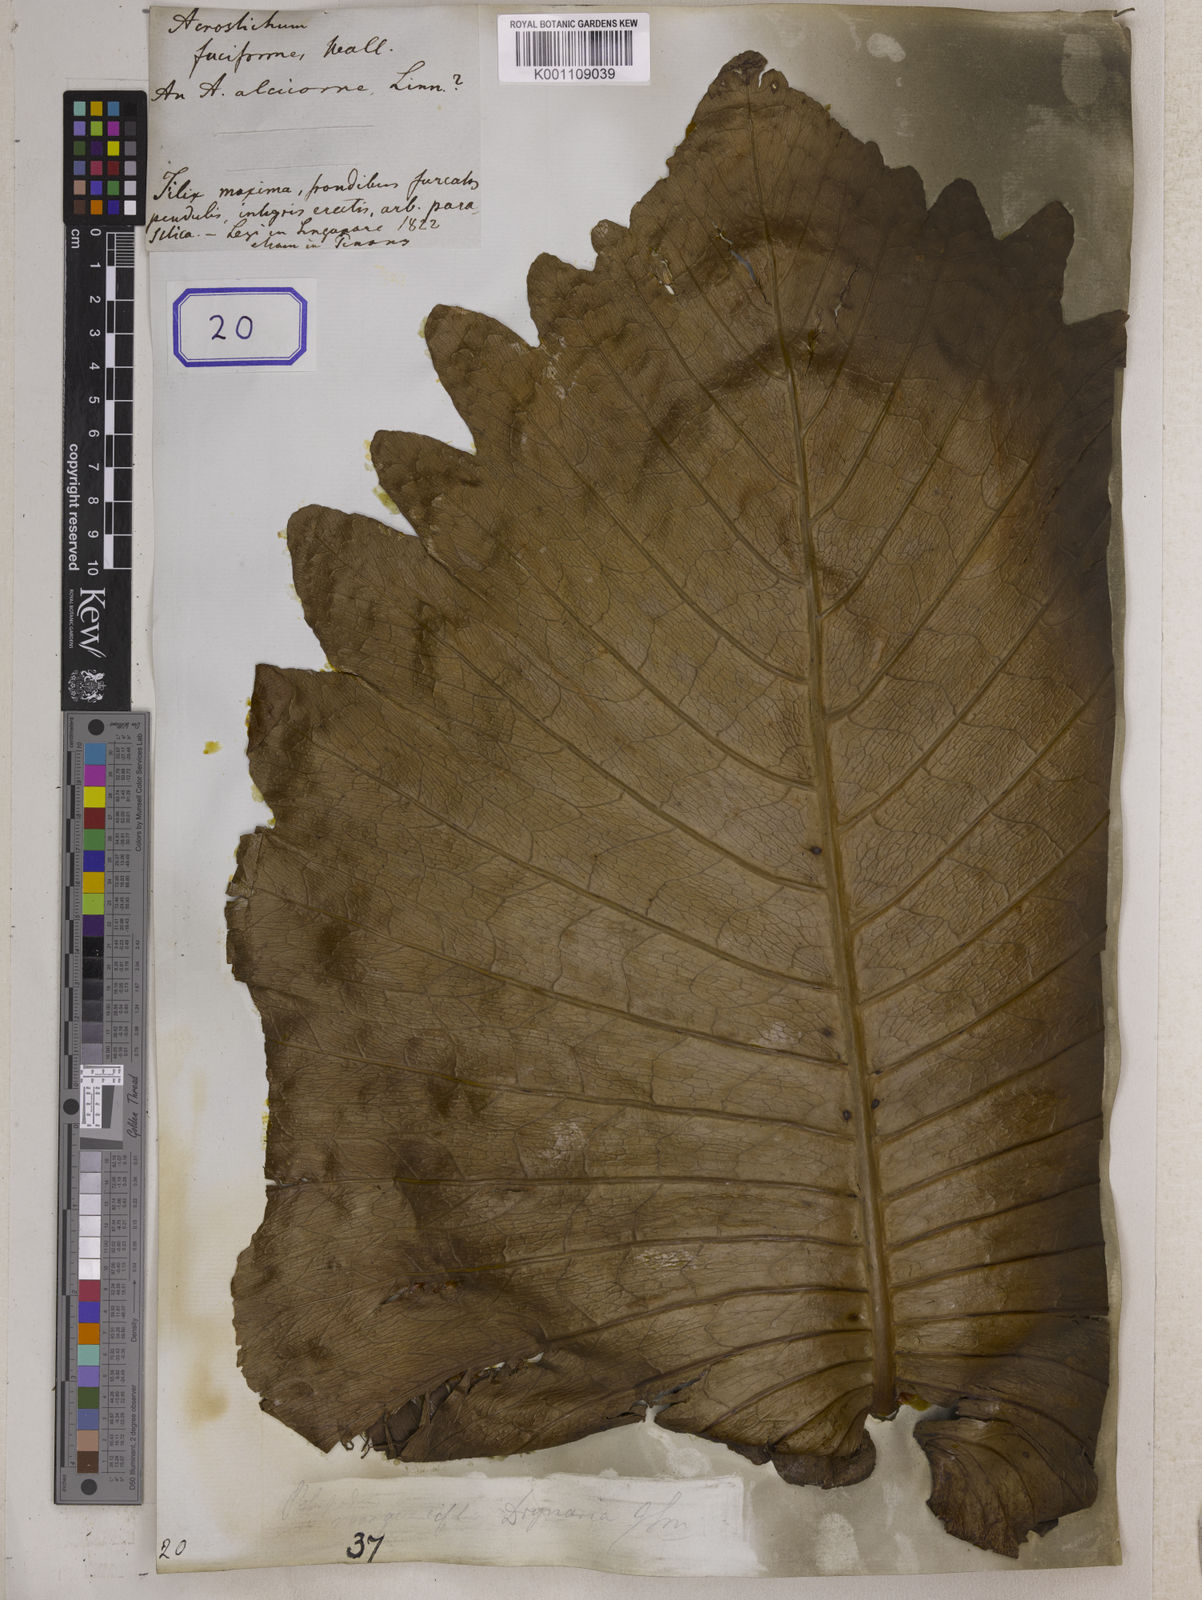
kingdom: Plantae
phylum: Tracheophyta
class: Polypodiopsida
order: Polypodiales
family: Polypodiaceae
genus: Platycerium
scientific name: Platycerium coronarium
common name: Elkhorn fern
